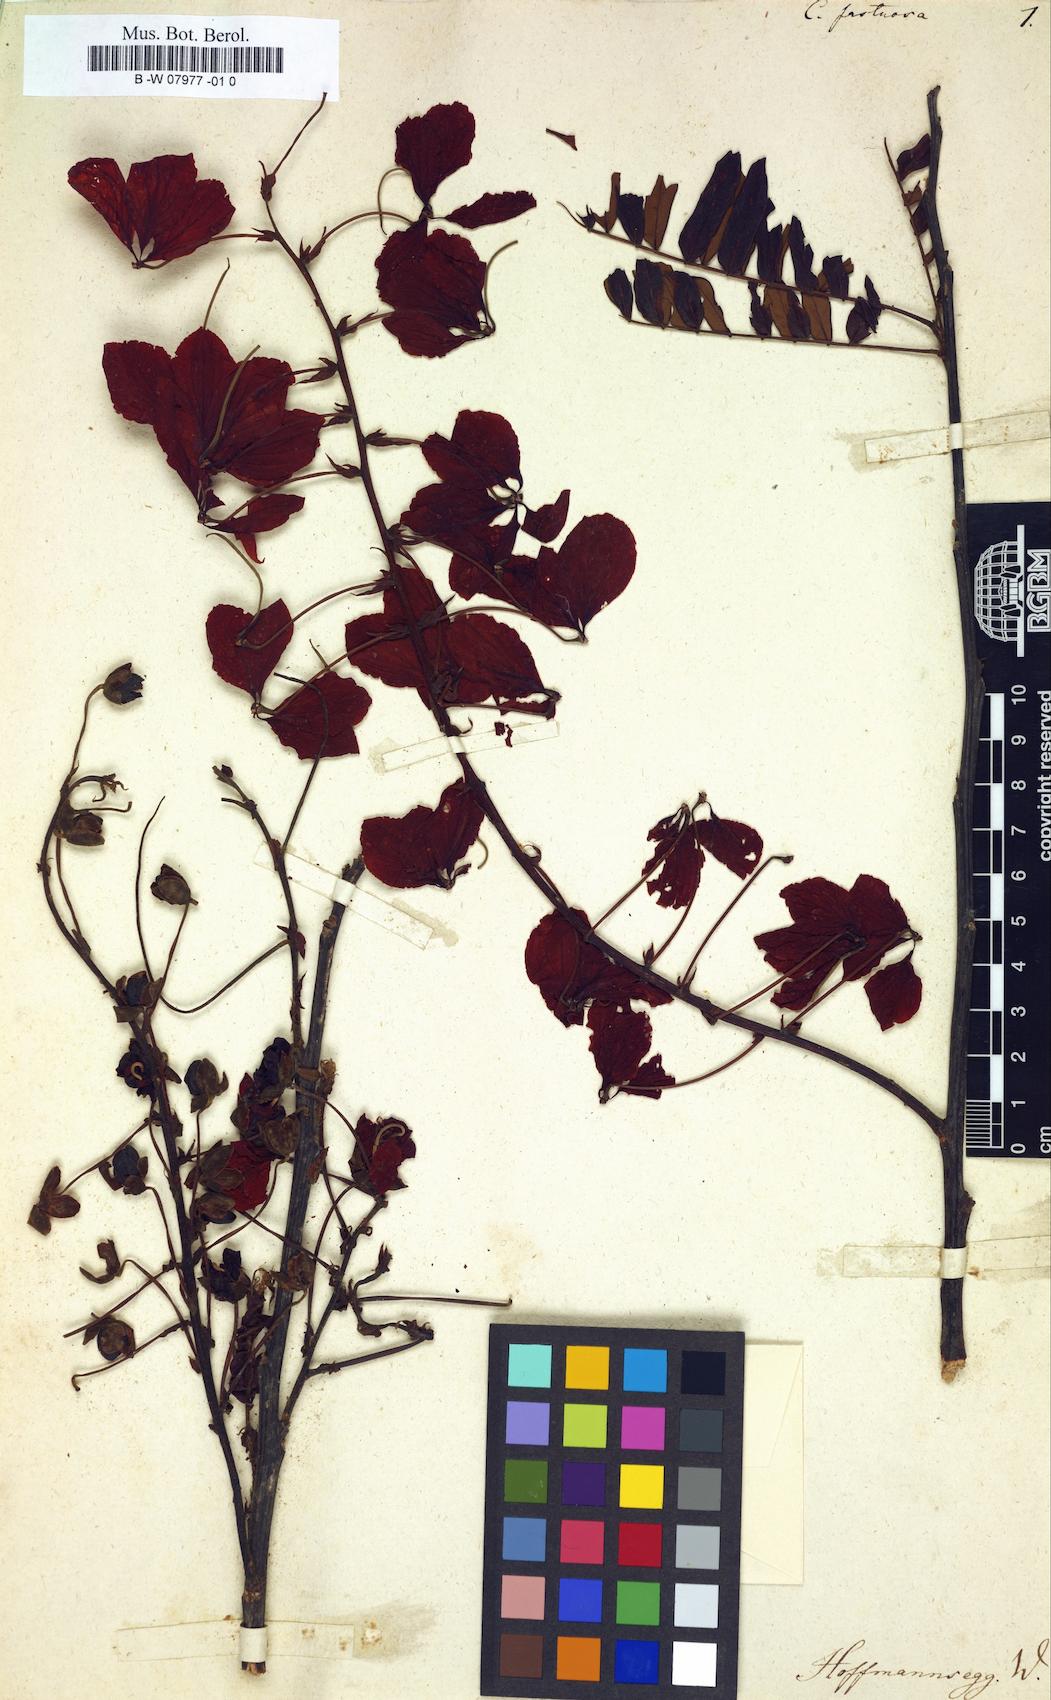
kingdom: Plantae
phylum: Tracheophyta
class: Magnoliopsida
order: Fabales
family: Fabaceae
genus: Cassia
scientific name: Cassia fastuosa
